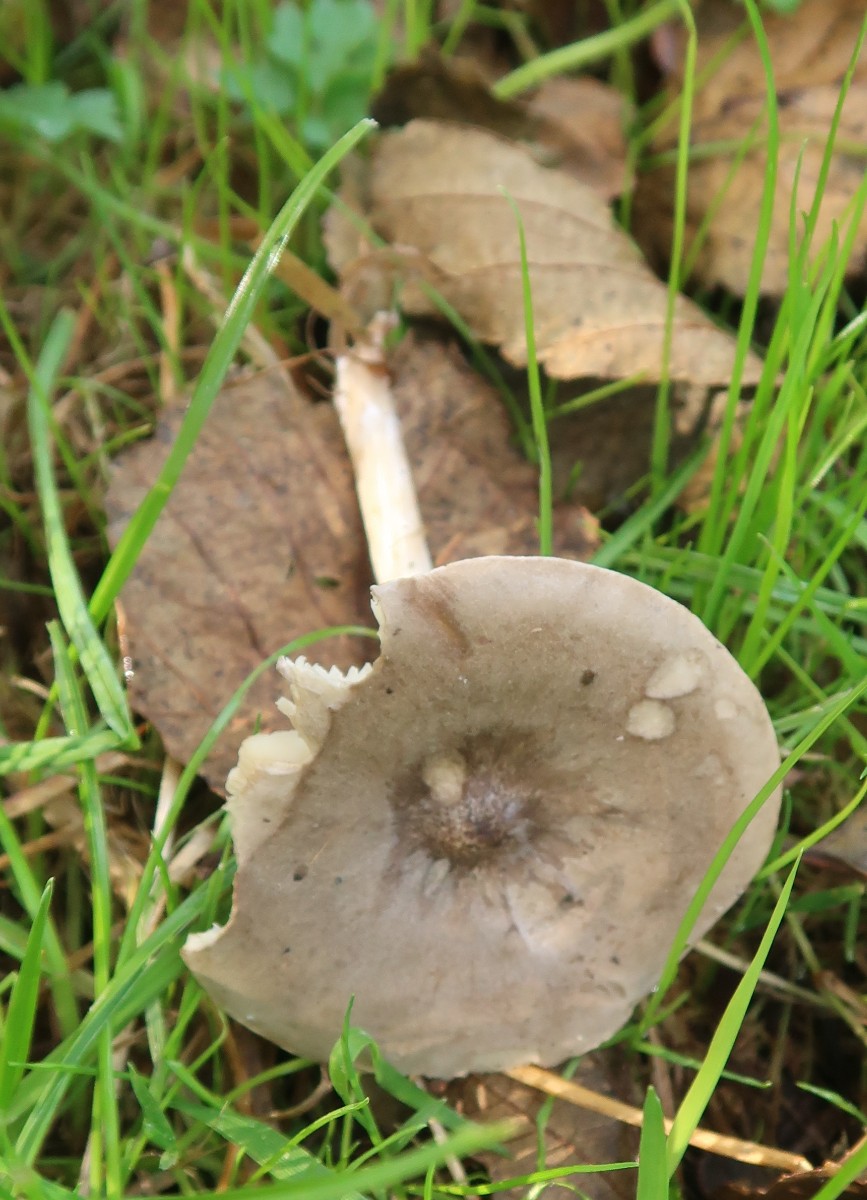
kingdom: Fungi
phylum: Basidiomycota
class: Agaricomycetes
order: Agaricales
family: Tricholomataceae
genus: Melanoleuca
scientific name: Melanoleuca
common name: munkehat
